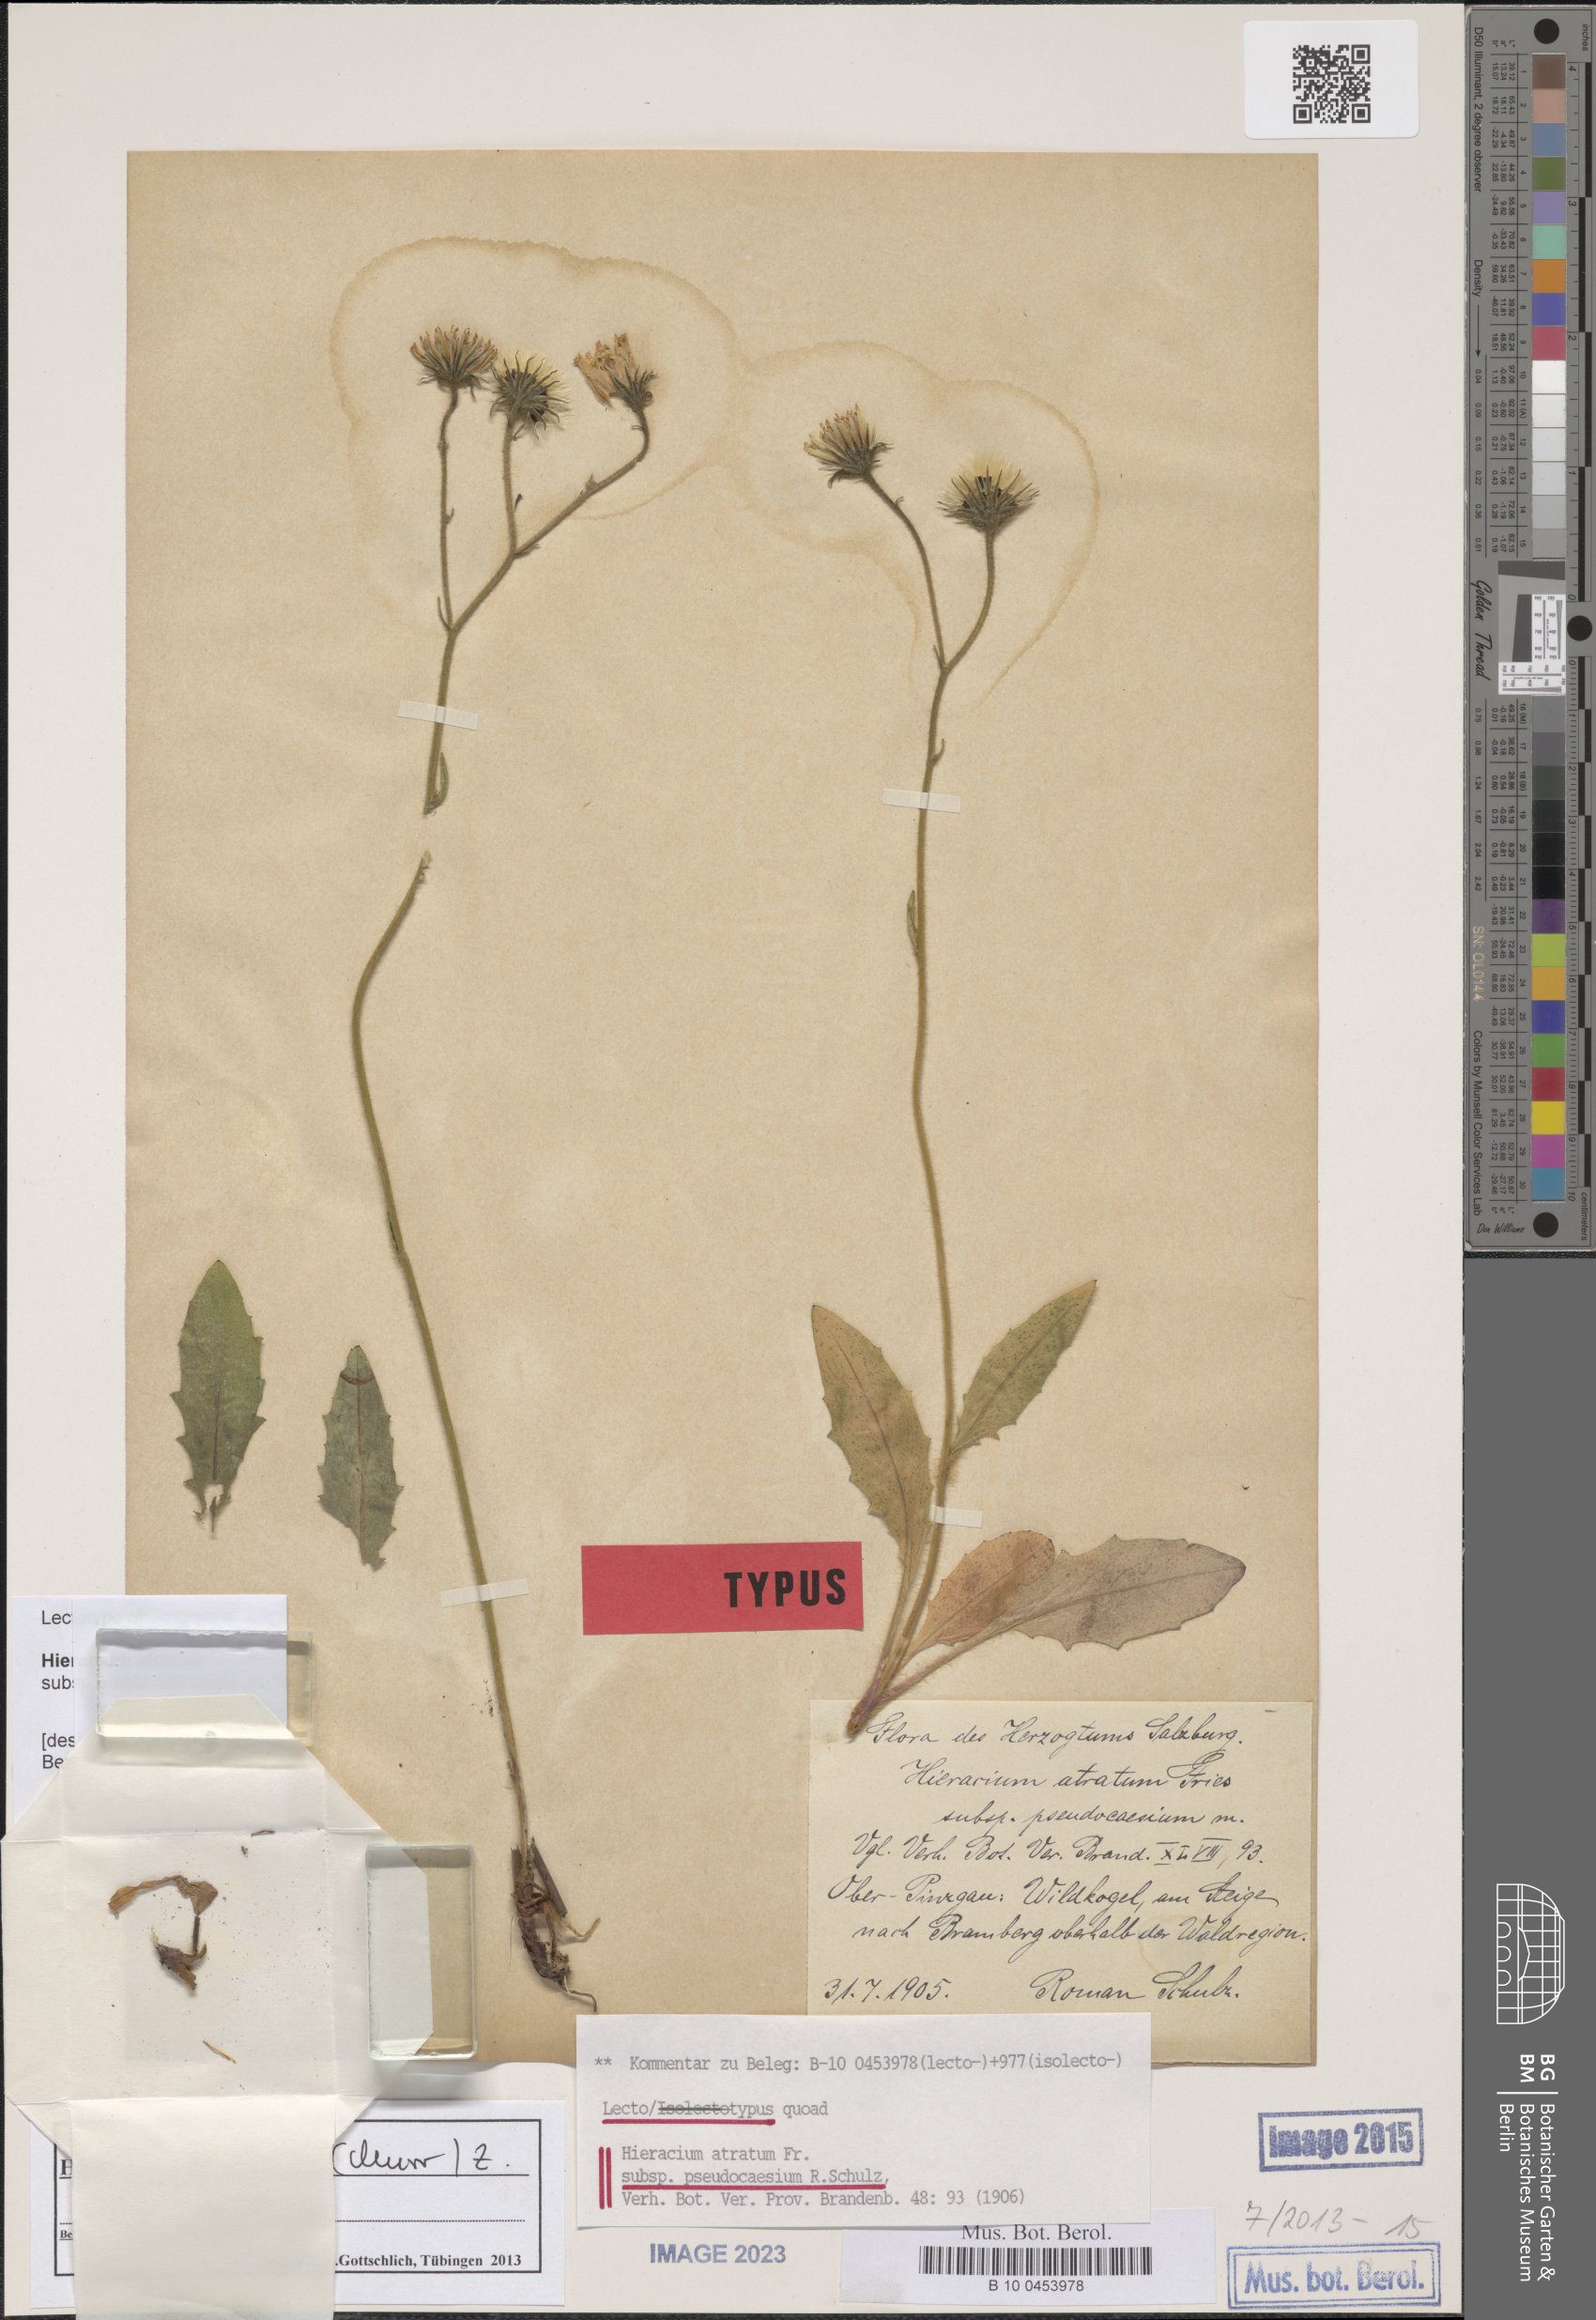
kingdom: Plantae
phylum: Tracheophyta
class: Magnoliopsida
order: Asterales
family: Asteraceae
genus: Hieracium
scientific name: Hieracium arolae
